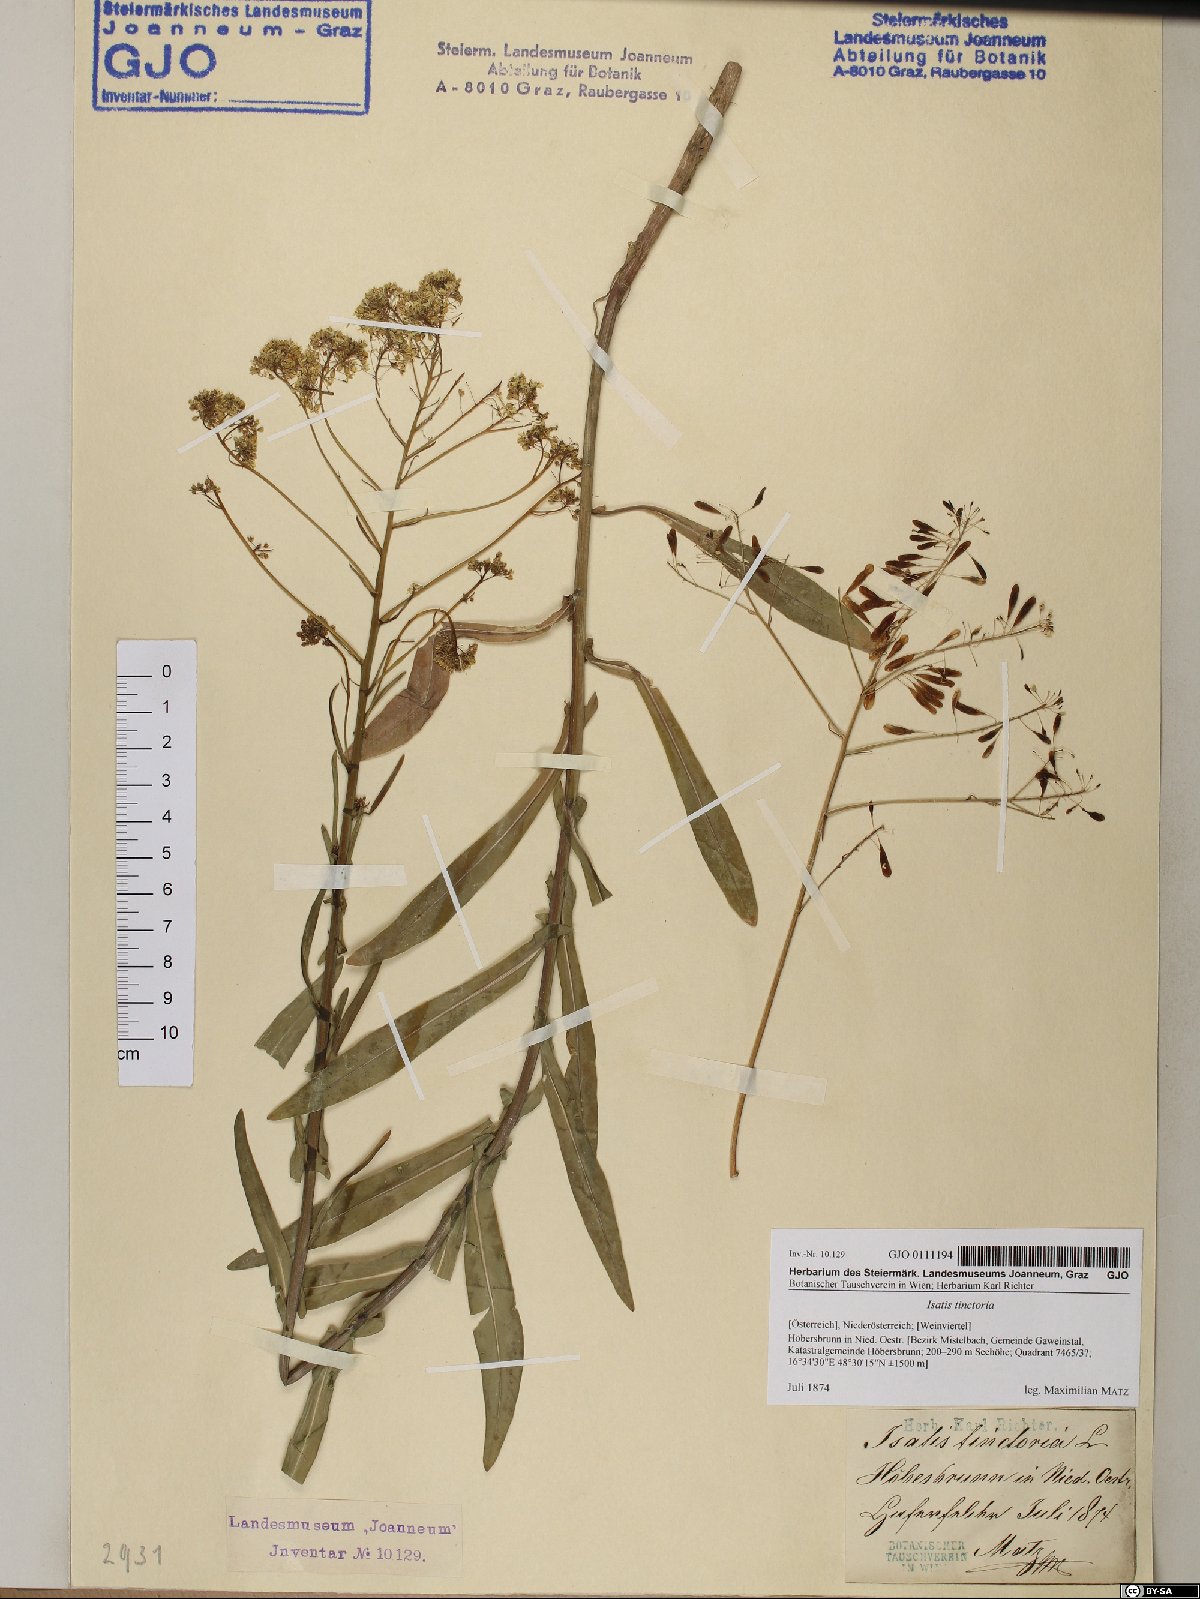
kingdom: Plantae
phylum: Tracheophyta
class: Magnoliopsida
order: Brassicales
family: Brassicaceae
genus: Isatis
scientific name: Isatis tinctoria
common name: Woad
